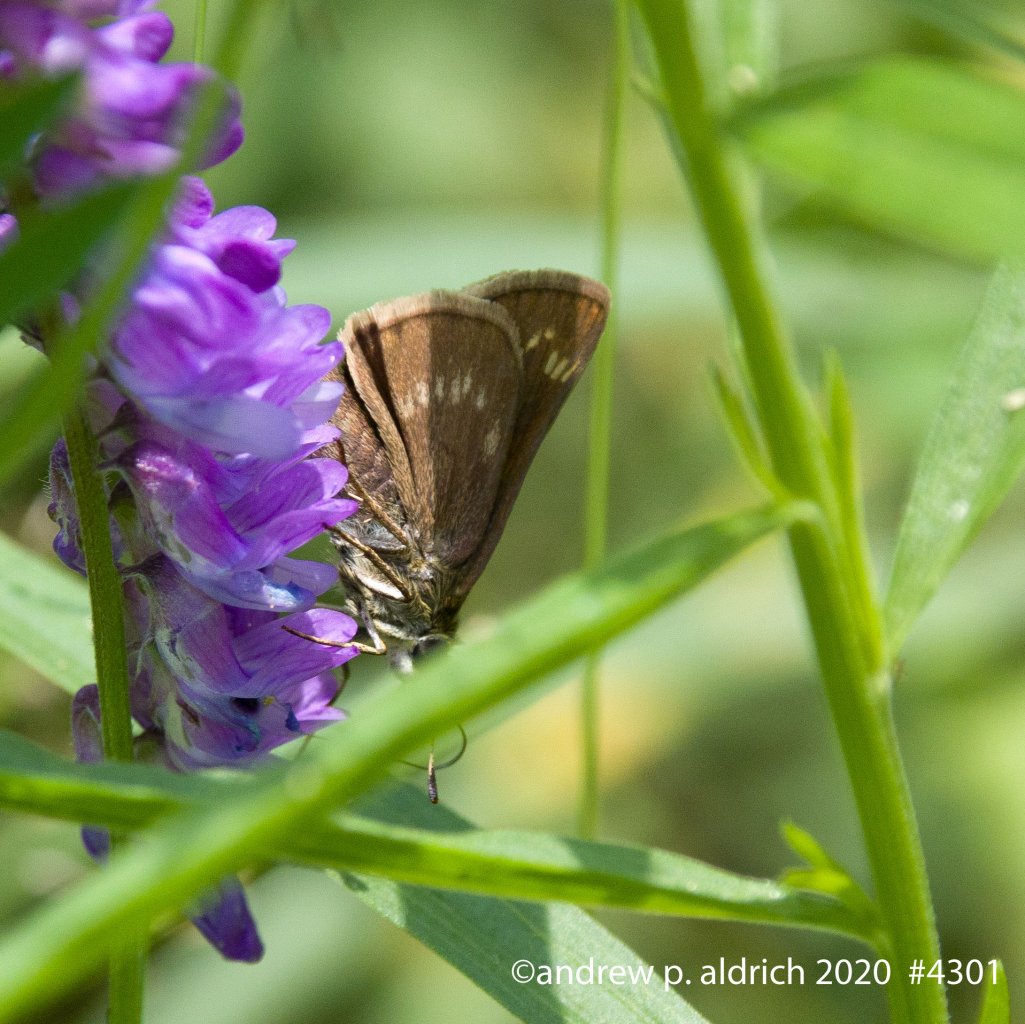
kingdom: Animalia
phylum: Arthropoda
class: Insecta
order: Lepidoptera
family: Hesperiidae
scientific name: Hesperiidae
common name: Skippers
